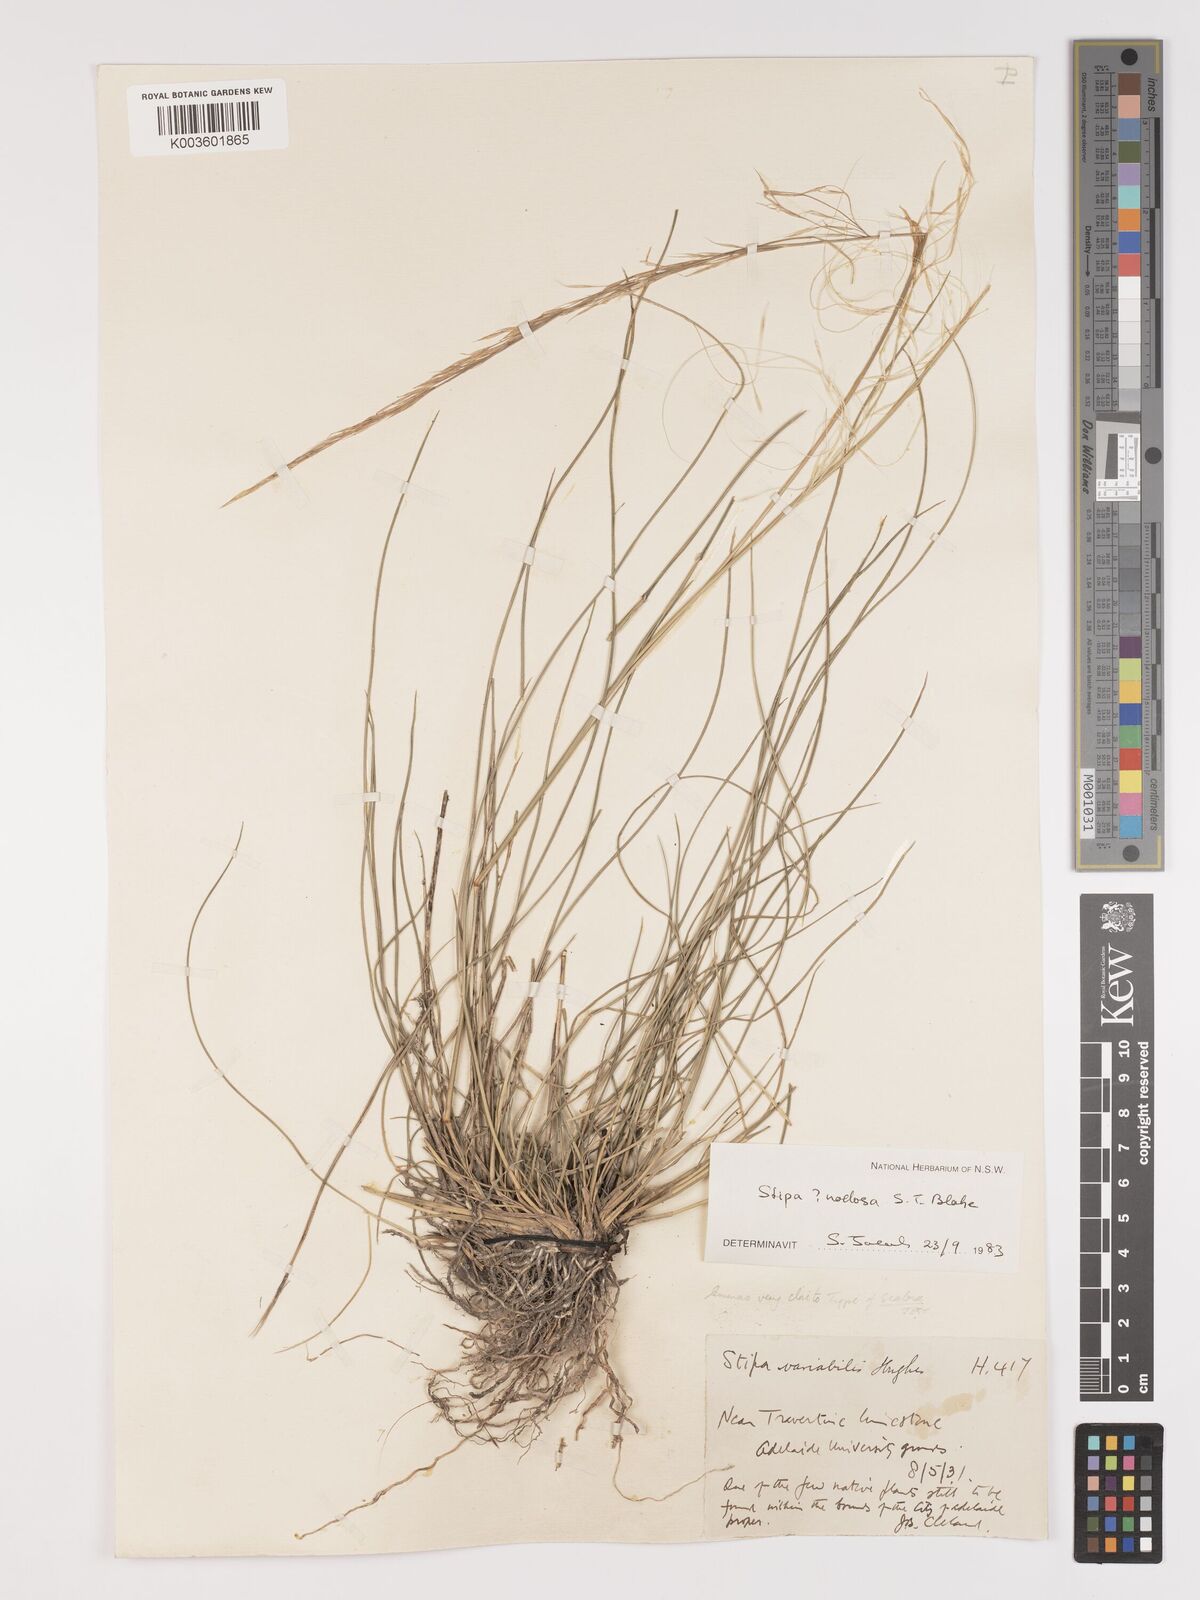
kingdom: Plantae
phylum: Tracheophyta
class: Liliopsida
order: Poales
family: Poaceae
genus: Austrostipa
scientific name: Austrostipa nitida
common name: Balcarra grass
